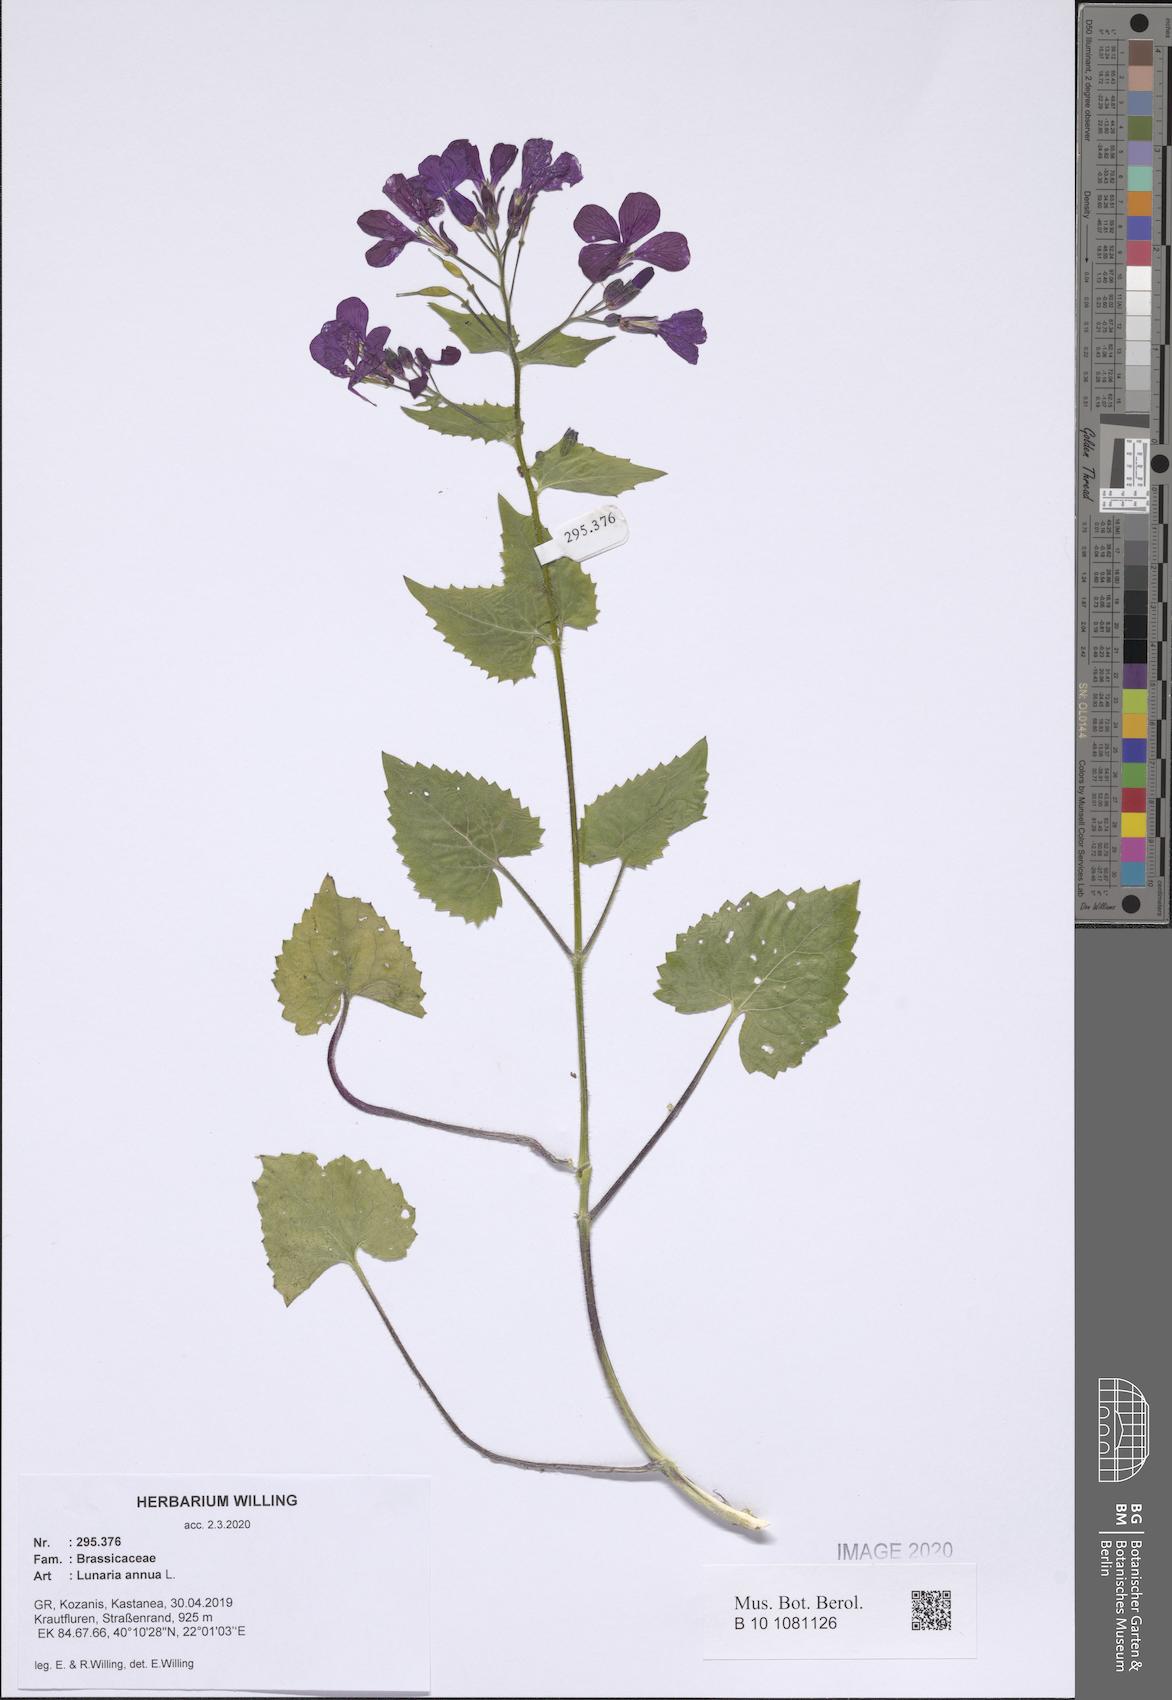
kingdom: Plantae
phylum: Tracheophyta
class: Magnoliopsida
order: Brassicales
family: Brassicaceae
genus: Lunaria
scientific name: Lunaria annua
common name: Honesty
